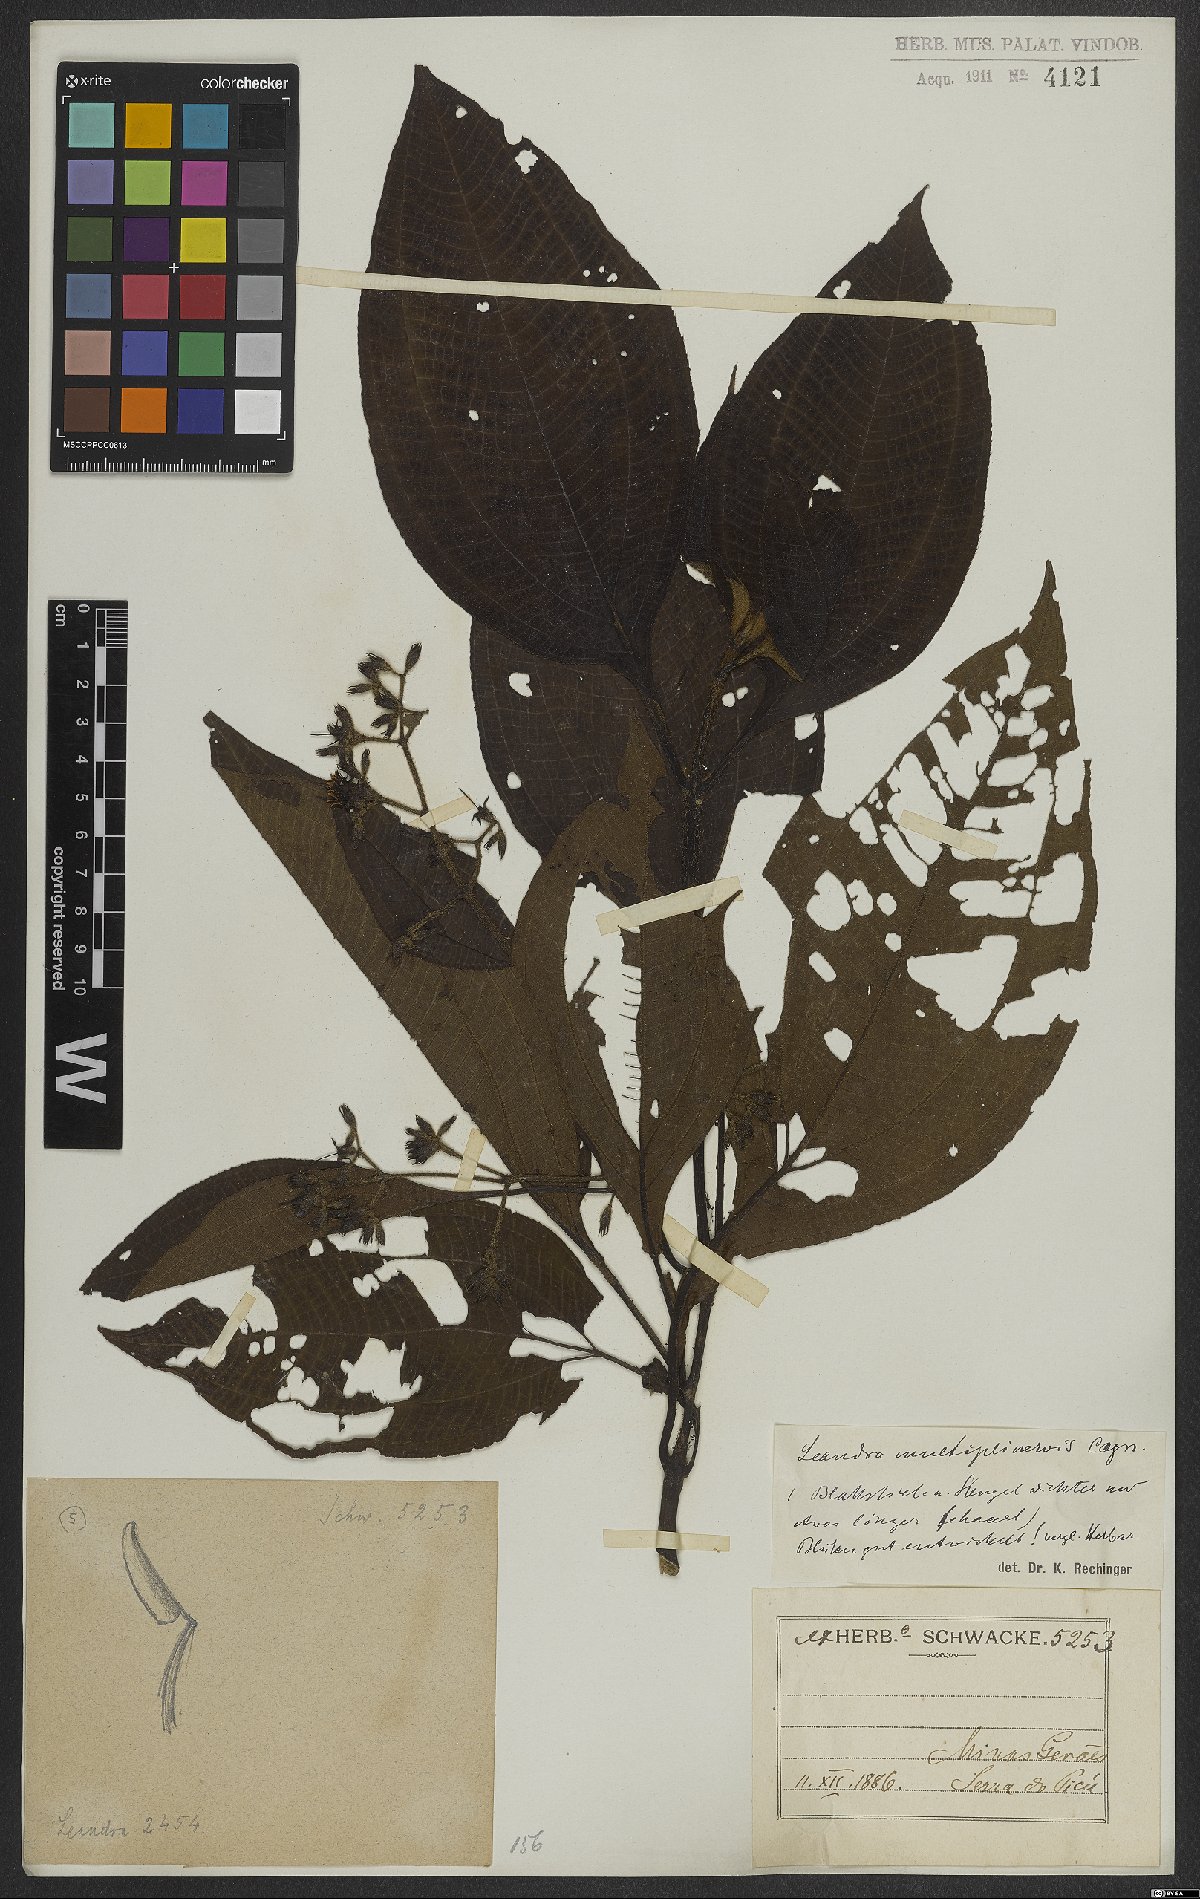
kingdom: Plantae
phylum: Tracheophyta
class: Magnoliopsida
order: Myrtales
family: Melastomataceae
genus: Miconia
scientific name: Miconia oocarpa
